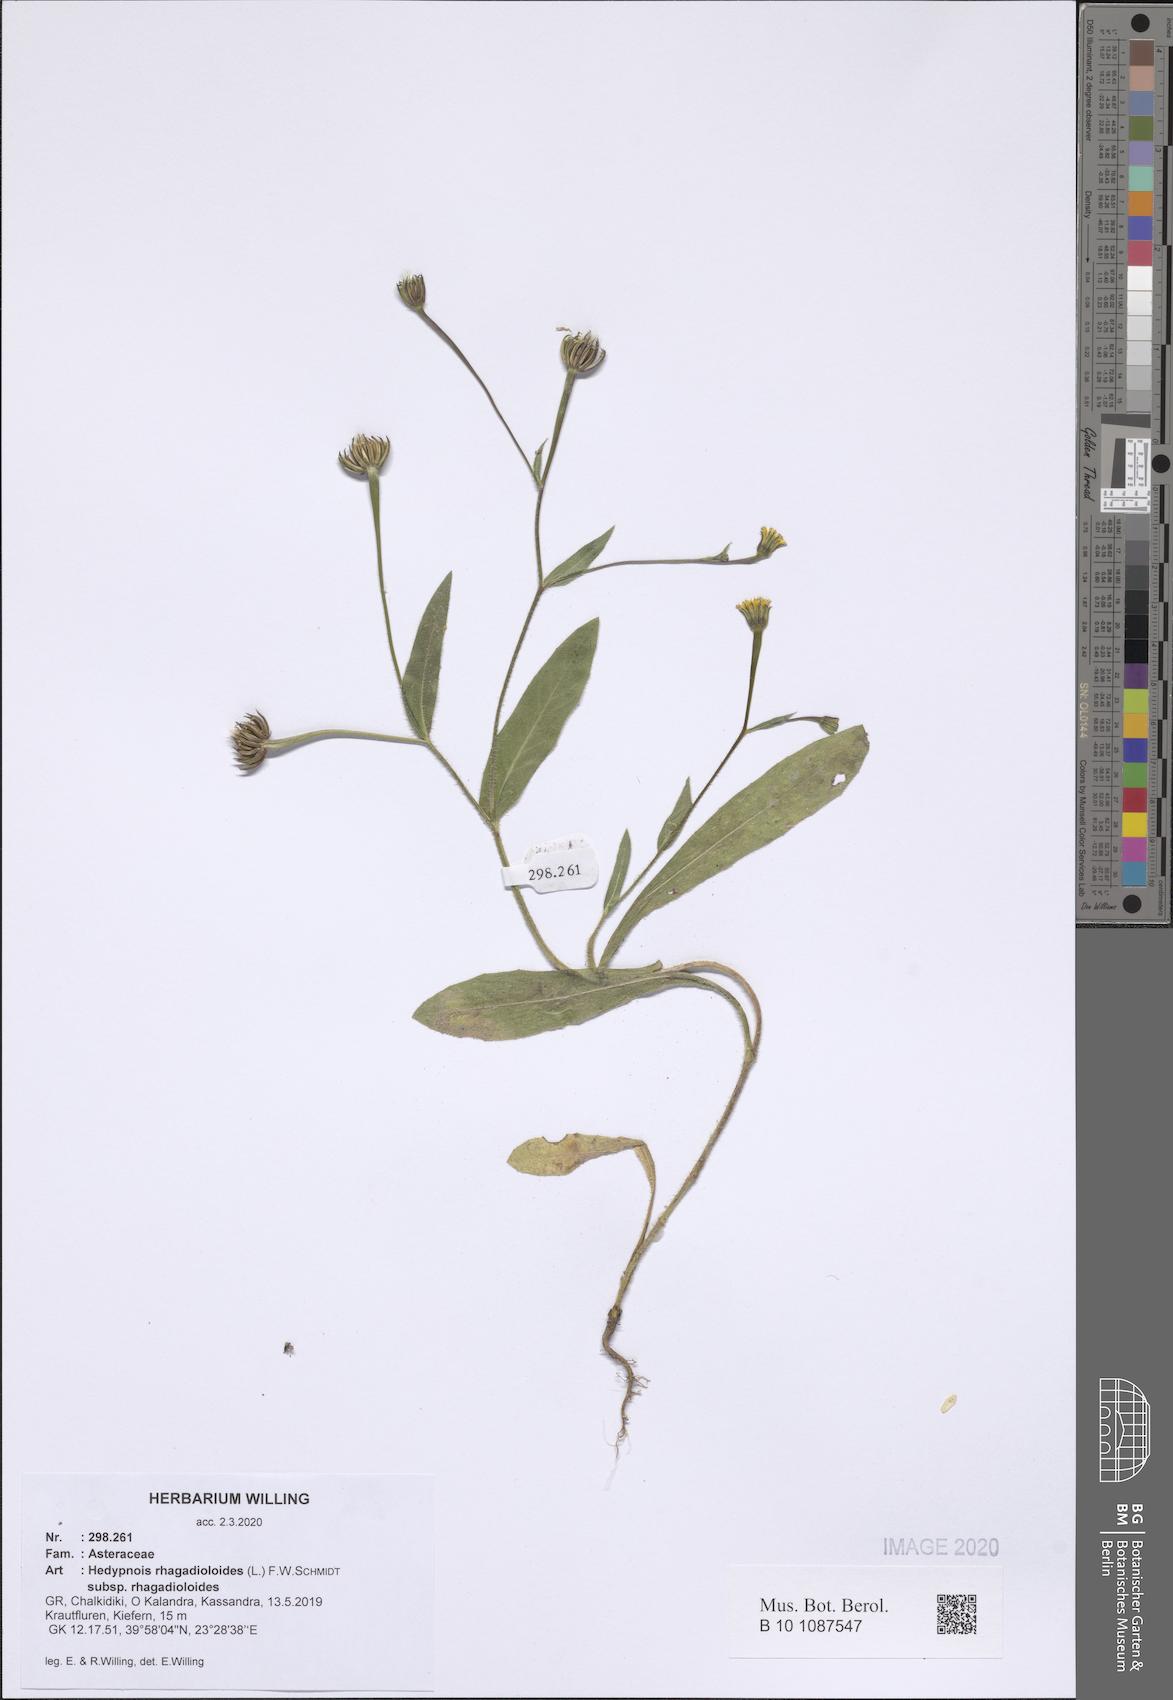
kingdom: Plantae
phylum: Tracheophyta
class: Magnoliopsida
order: Asterales
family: Asteraceae
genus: Hedypnois
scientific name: Hedypnois rhagadioloides
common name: Cretan weed
